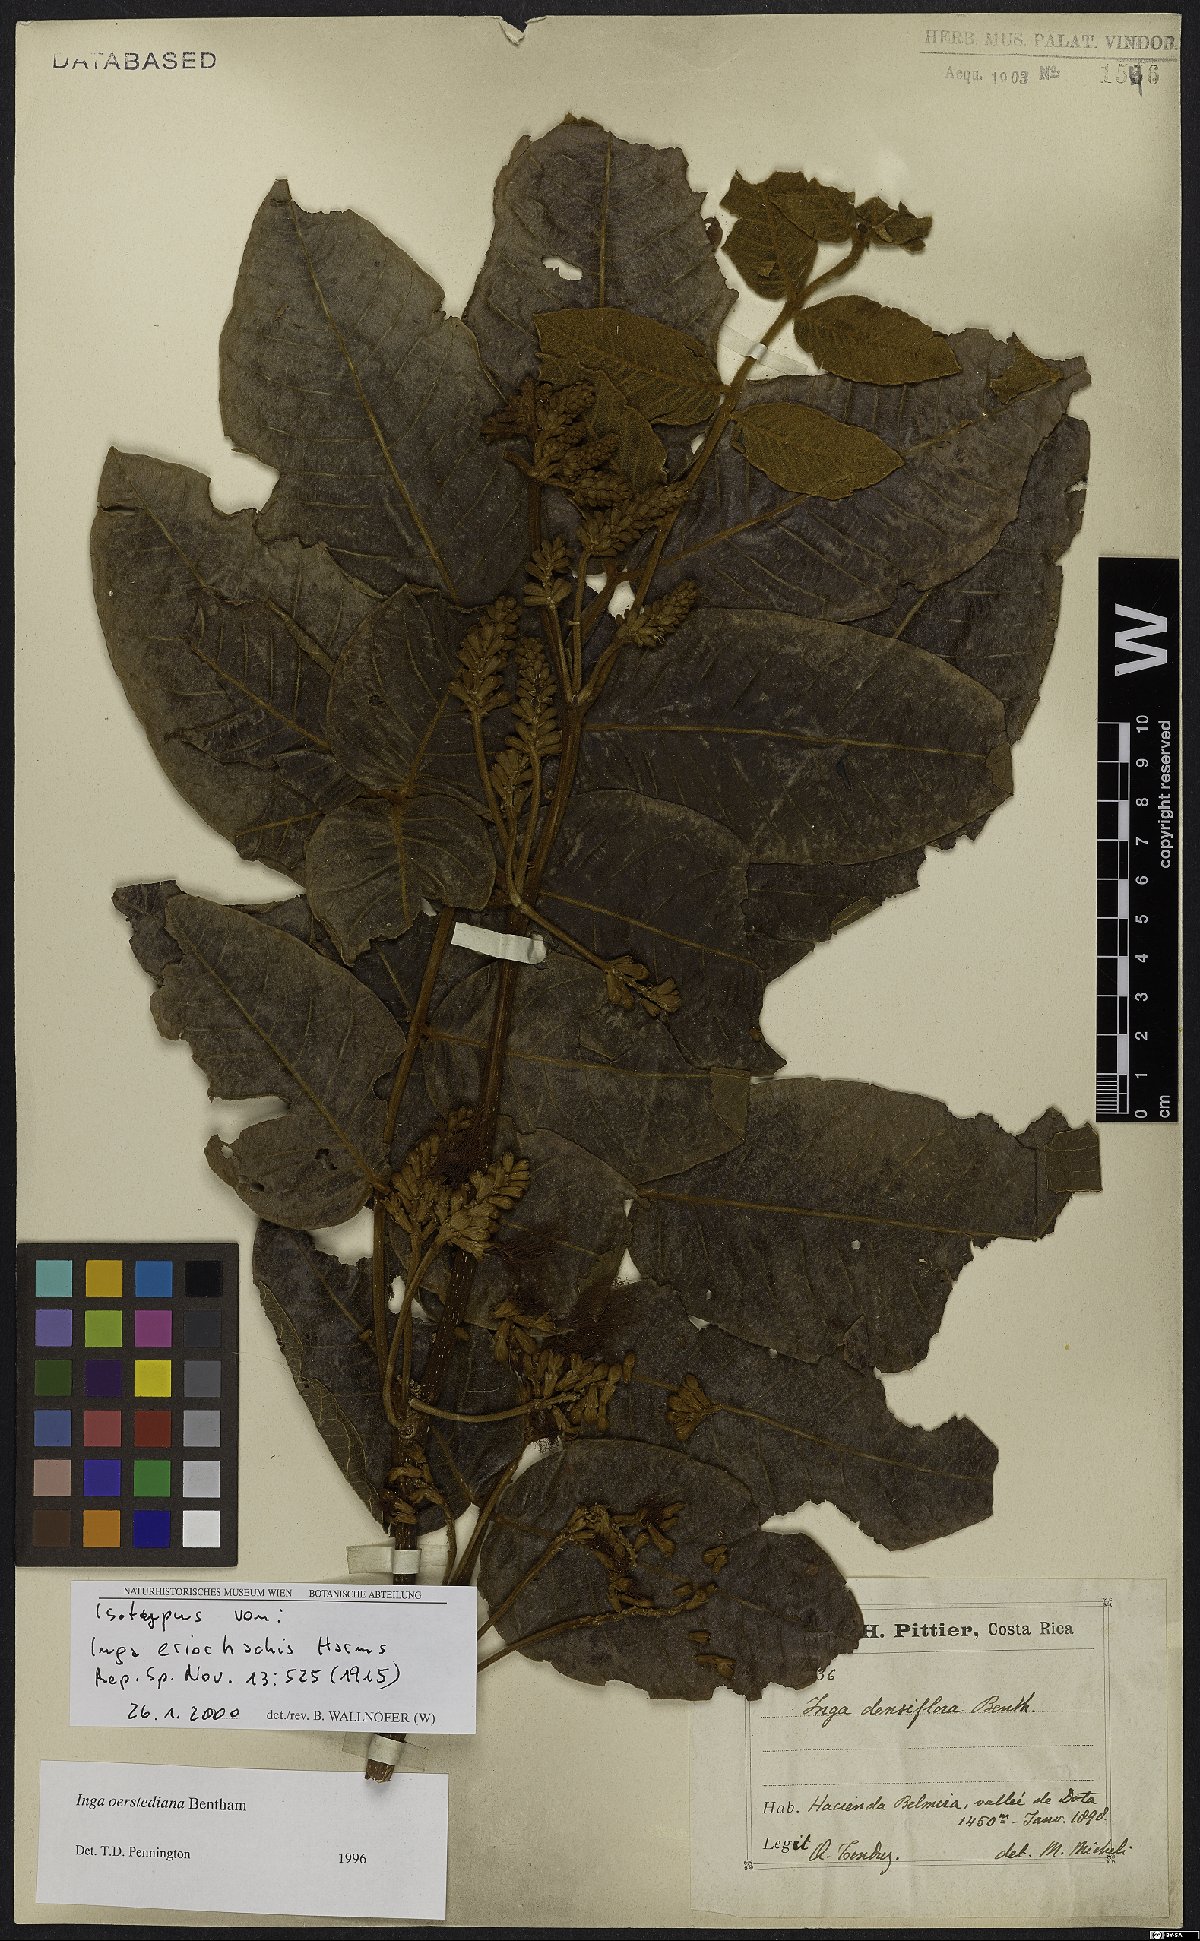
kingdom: Plantae
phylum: Tracheophyta
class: Magnoliopsida
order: Fabales
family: Fabaceae
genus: Inga
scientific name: Inga oerstediana
